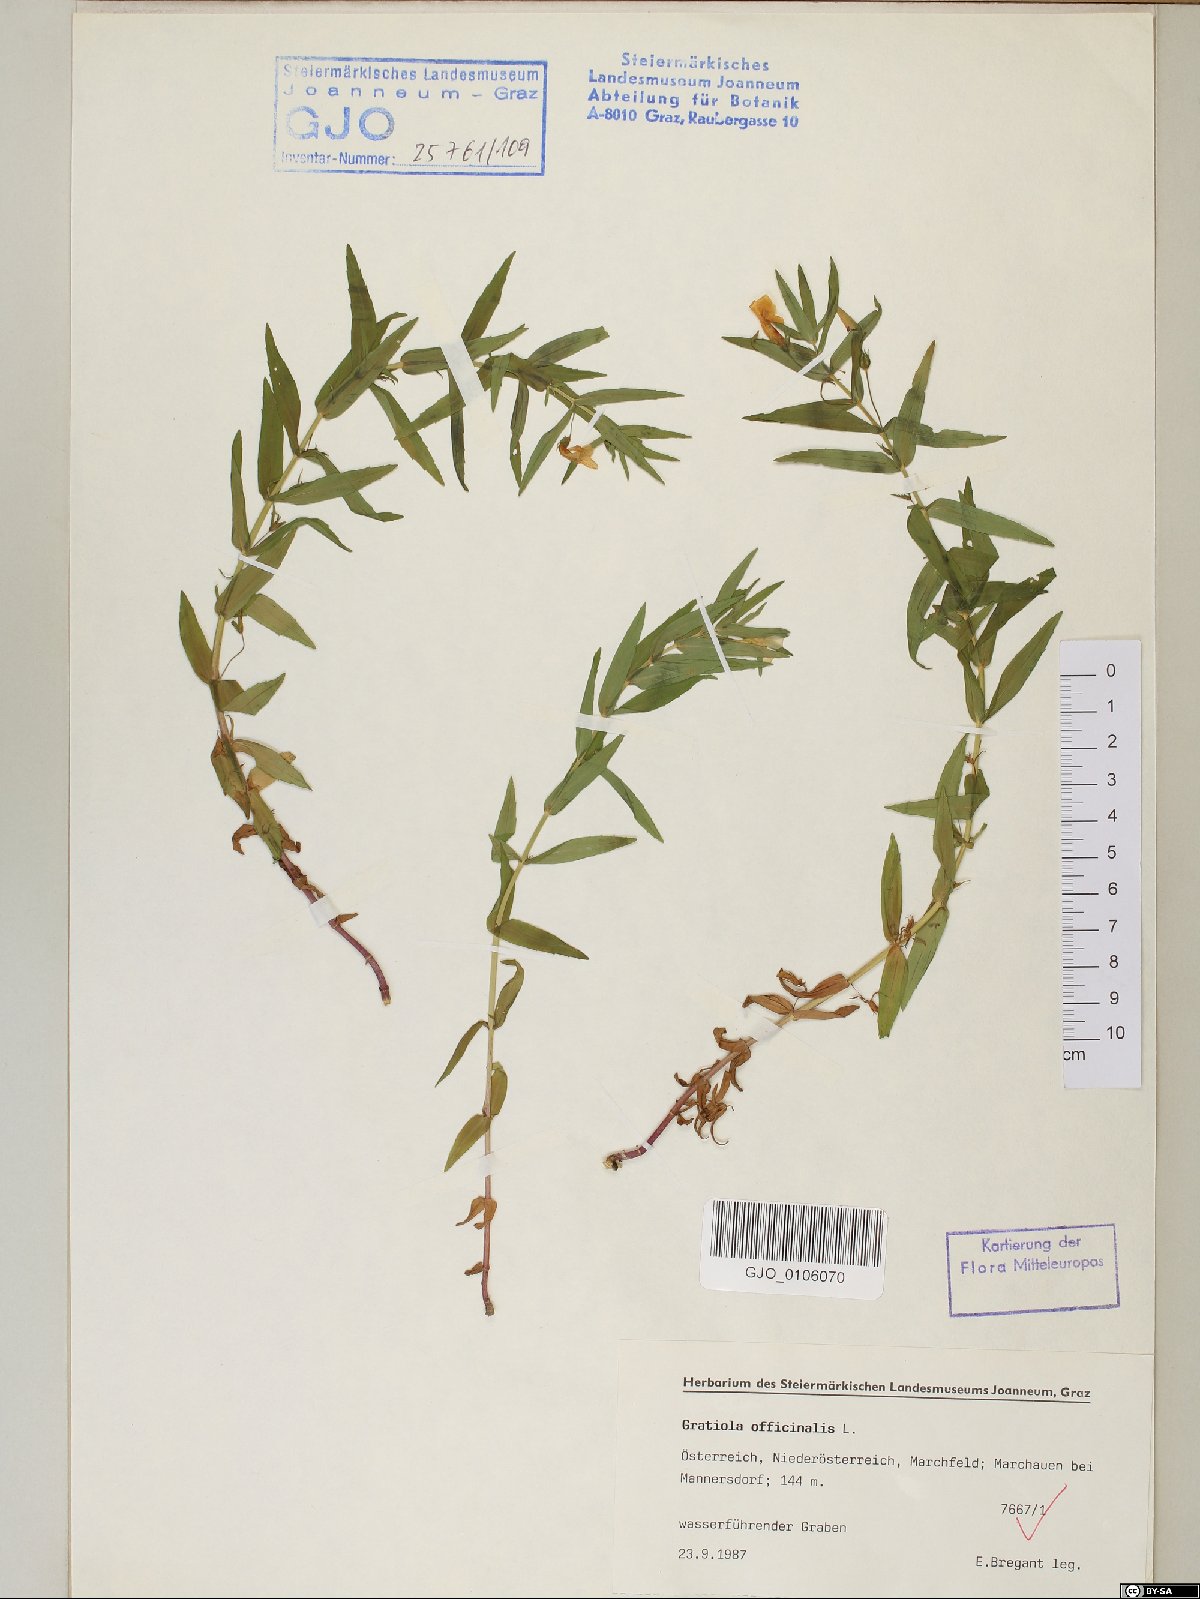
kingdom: Plantae
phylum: Tracheophyta
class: Magnoliopsida
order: Lamiales
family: Plantaginaceae
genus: Gratiola
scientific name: Gratiola officinalis
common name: Gratiola
